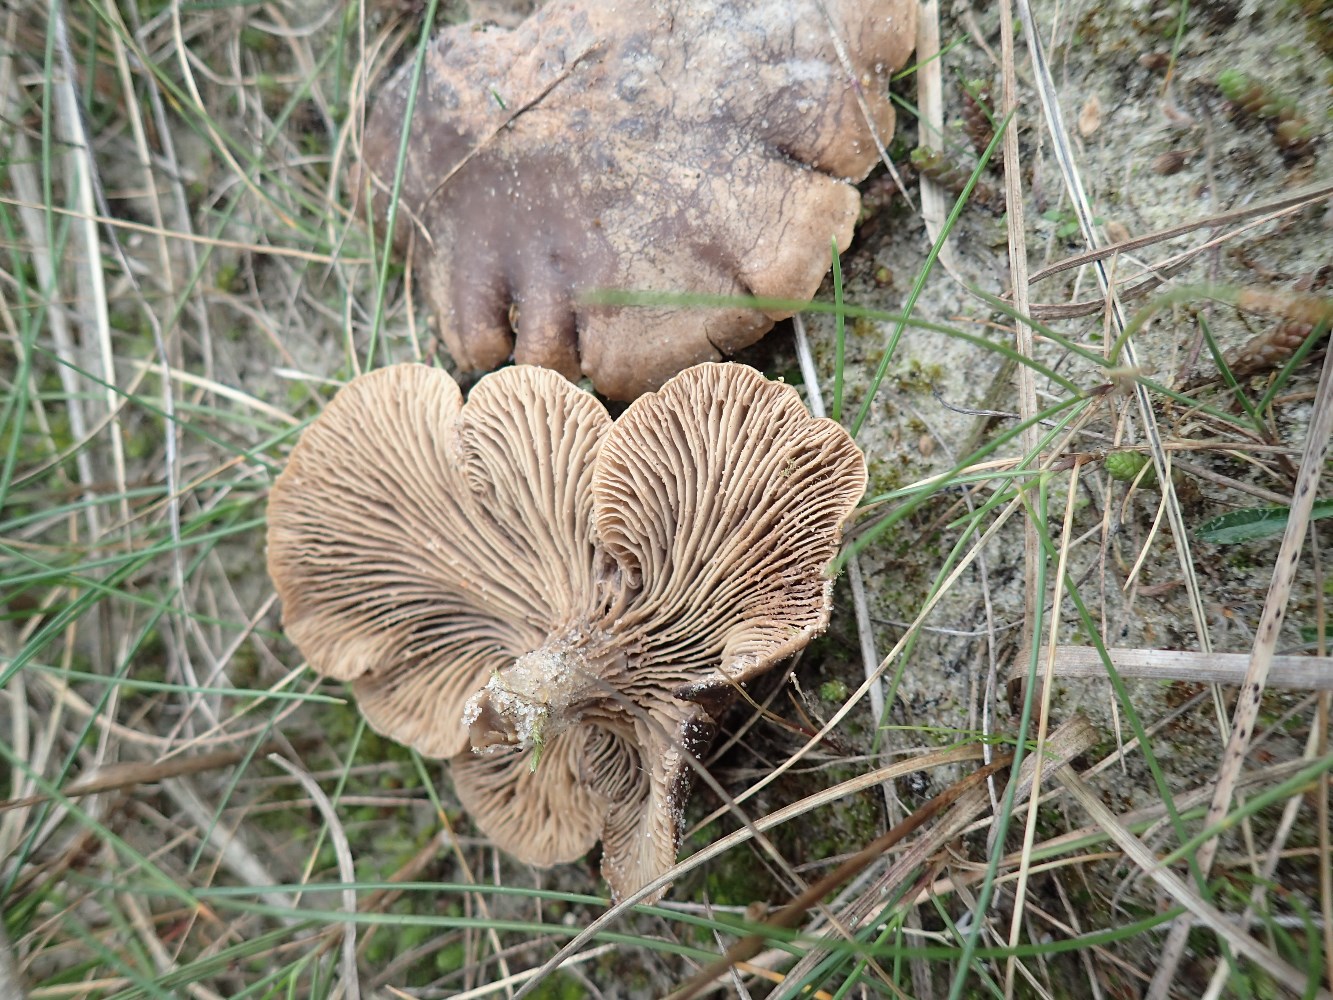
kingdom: Fungi
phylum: Basidiomycota
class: Agaricomycetes
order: Agaricales
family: Tricholomataceae
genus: Lulesia
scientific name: Lulesia
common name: sortnende troldhat
